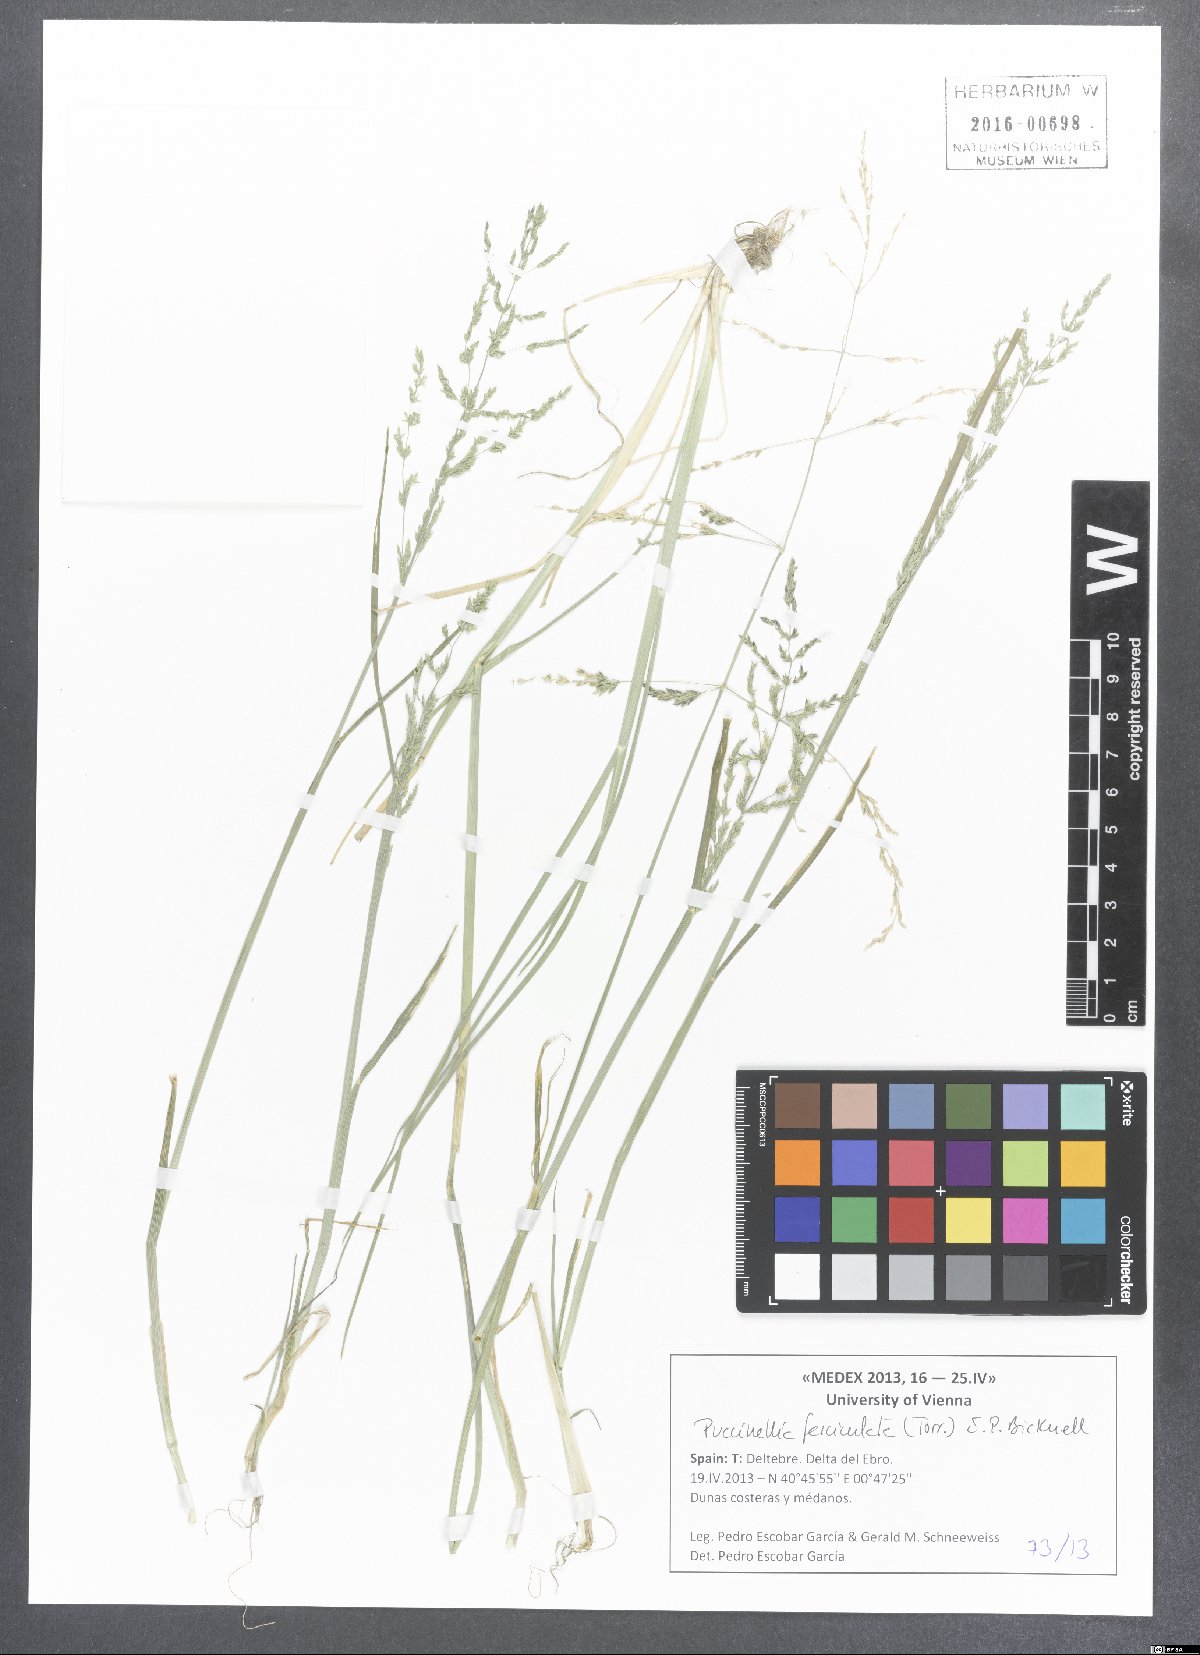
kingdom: Plantae
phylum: Tracheophyta
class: Liliopsida
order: Poales
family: Poaceae
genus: Puccinellia
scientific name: Puccinellia fasciculata
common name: Borrer's saltmarsh-grass
